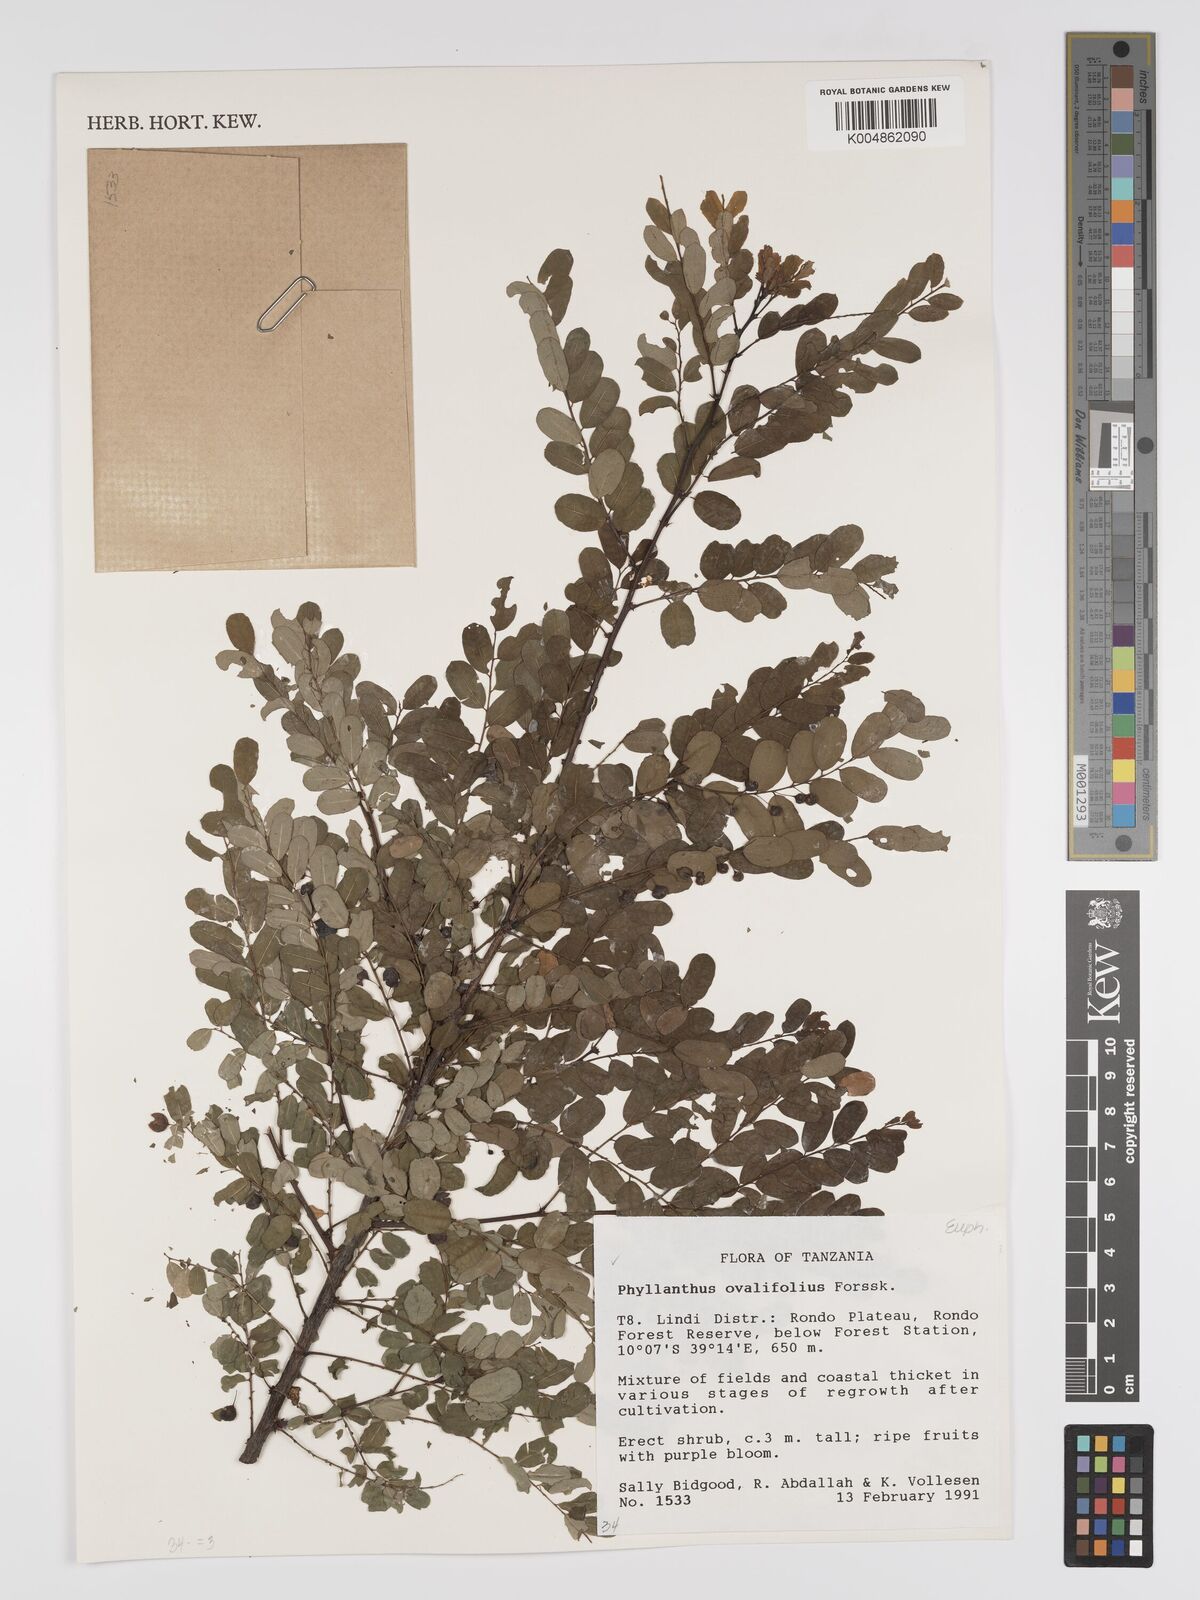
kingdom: Plantae
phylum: Tracheophyta
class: Magnoliopsida
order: Malpighiales
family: Phyllanthaceae
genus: Phyllanthus
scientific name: Phyllanthus ovalifolius
